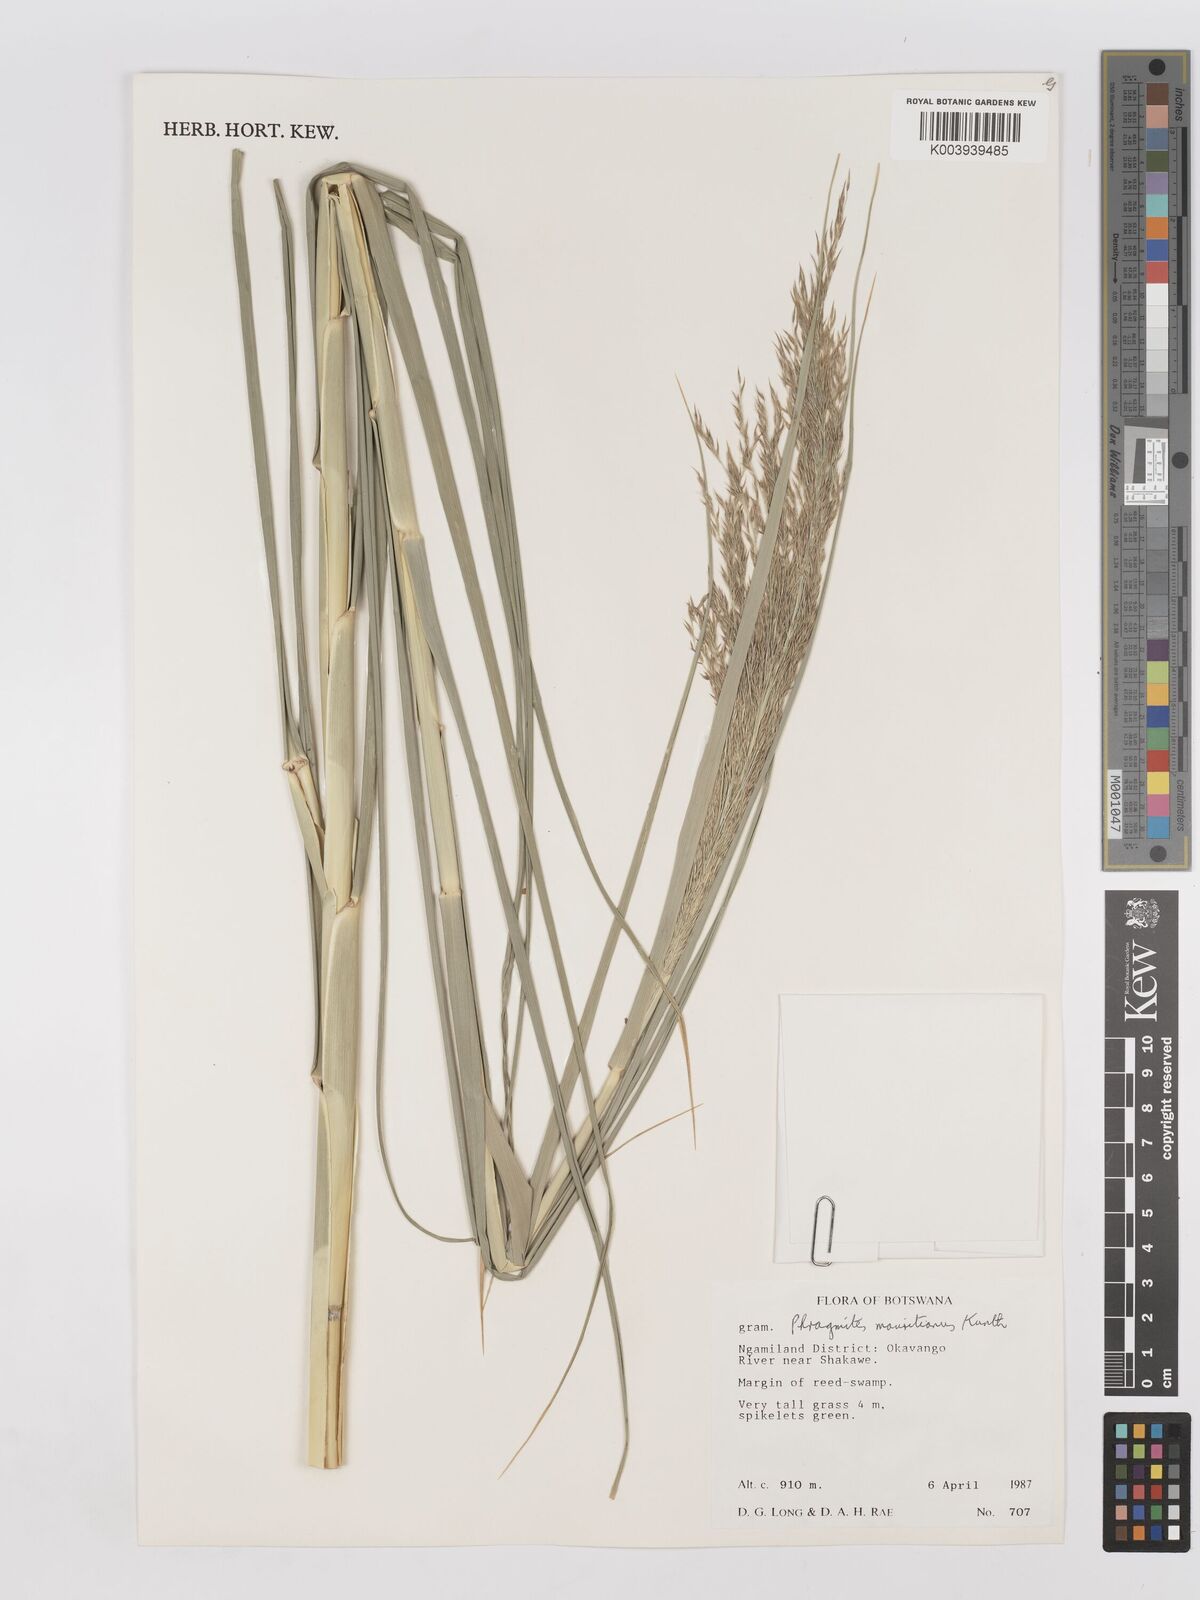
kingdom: Plantae
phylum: Tracheophyta
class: Liliopsida
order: Poales
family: Poaceae
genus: Phragmites
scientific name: Phragmites mauritianus
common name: Reed grass
